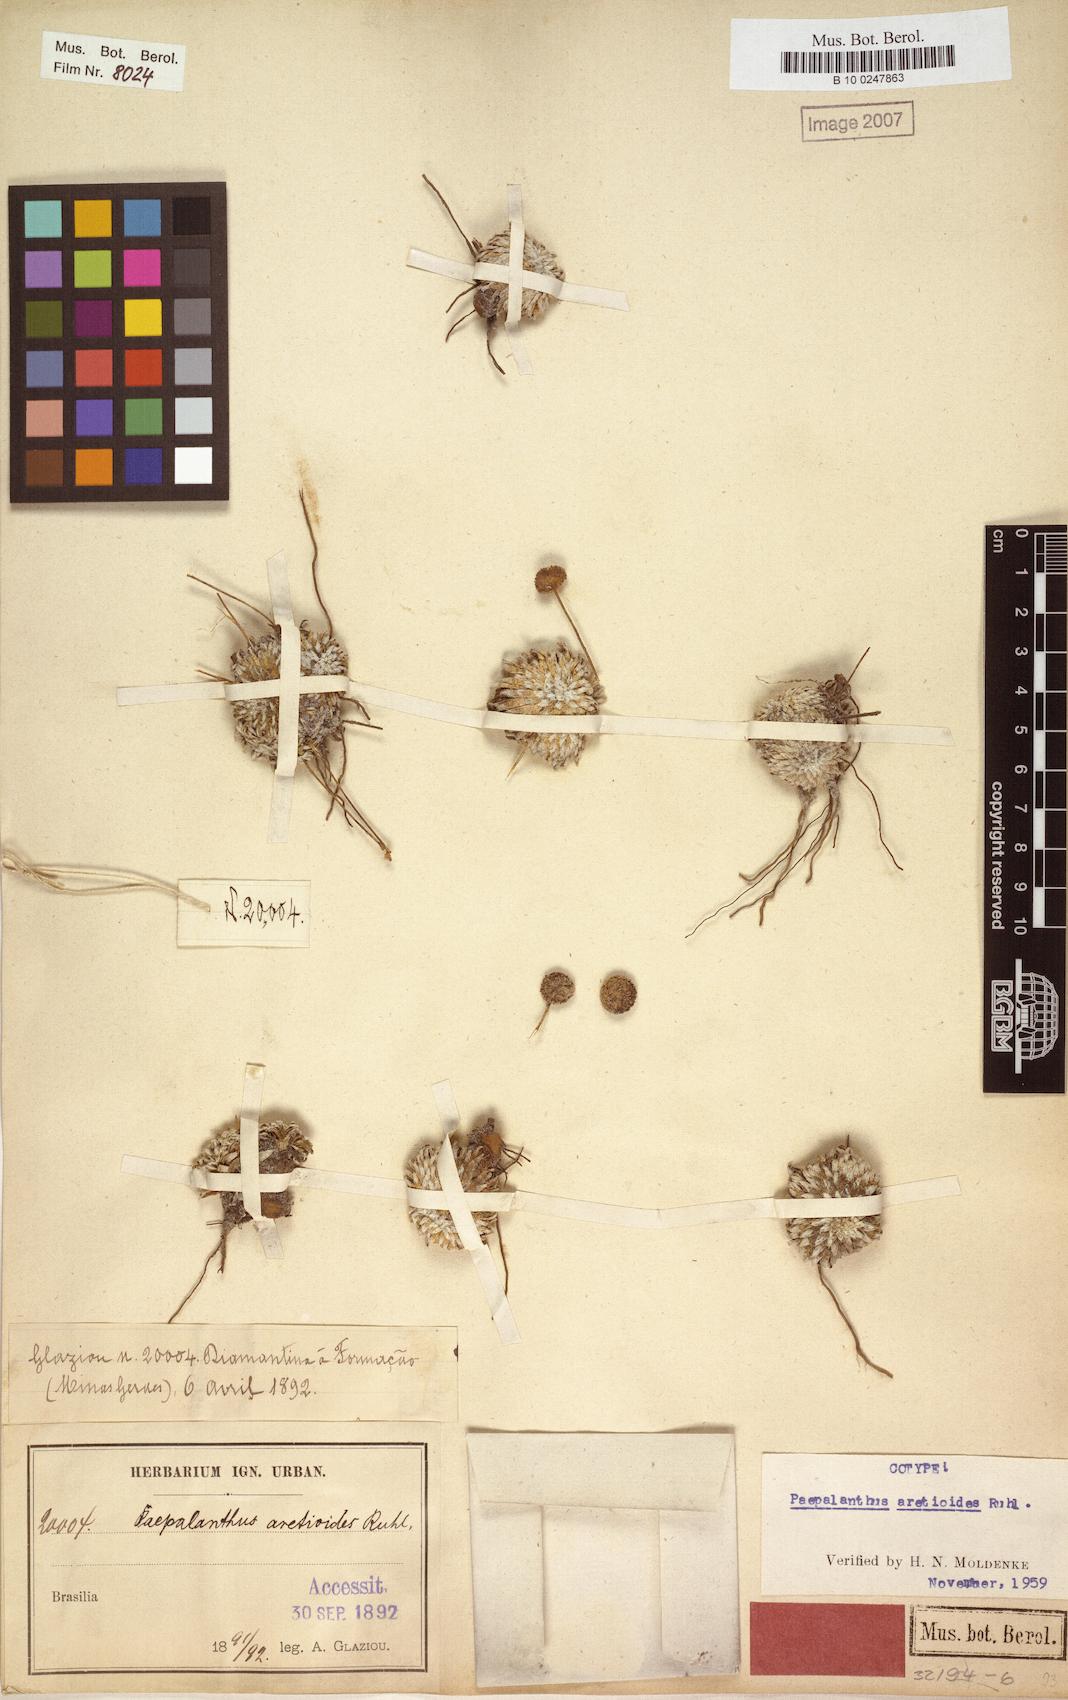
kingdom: Plantae
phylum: Tracheophyta
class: Liliopsida
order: Poales
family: Eriocaulaceae
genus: Paepalanthus
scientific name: Paepalanthus aretioides
